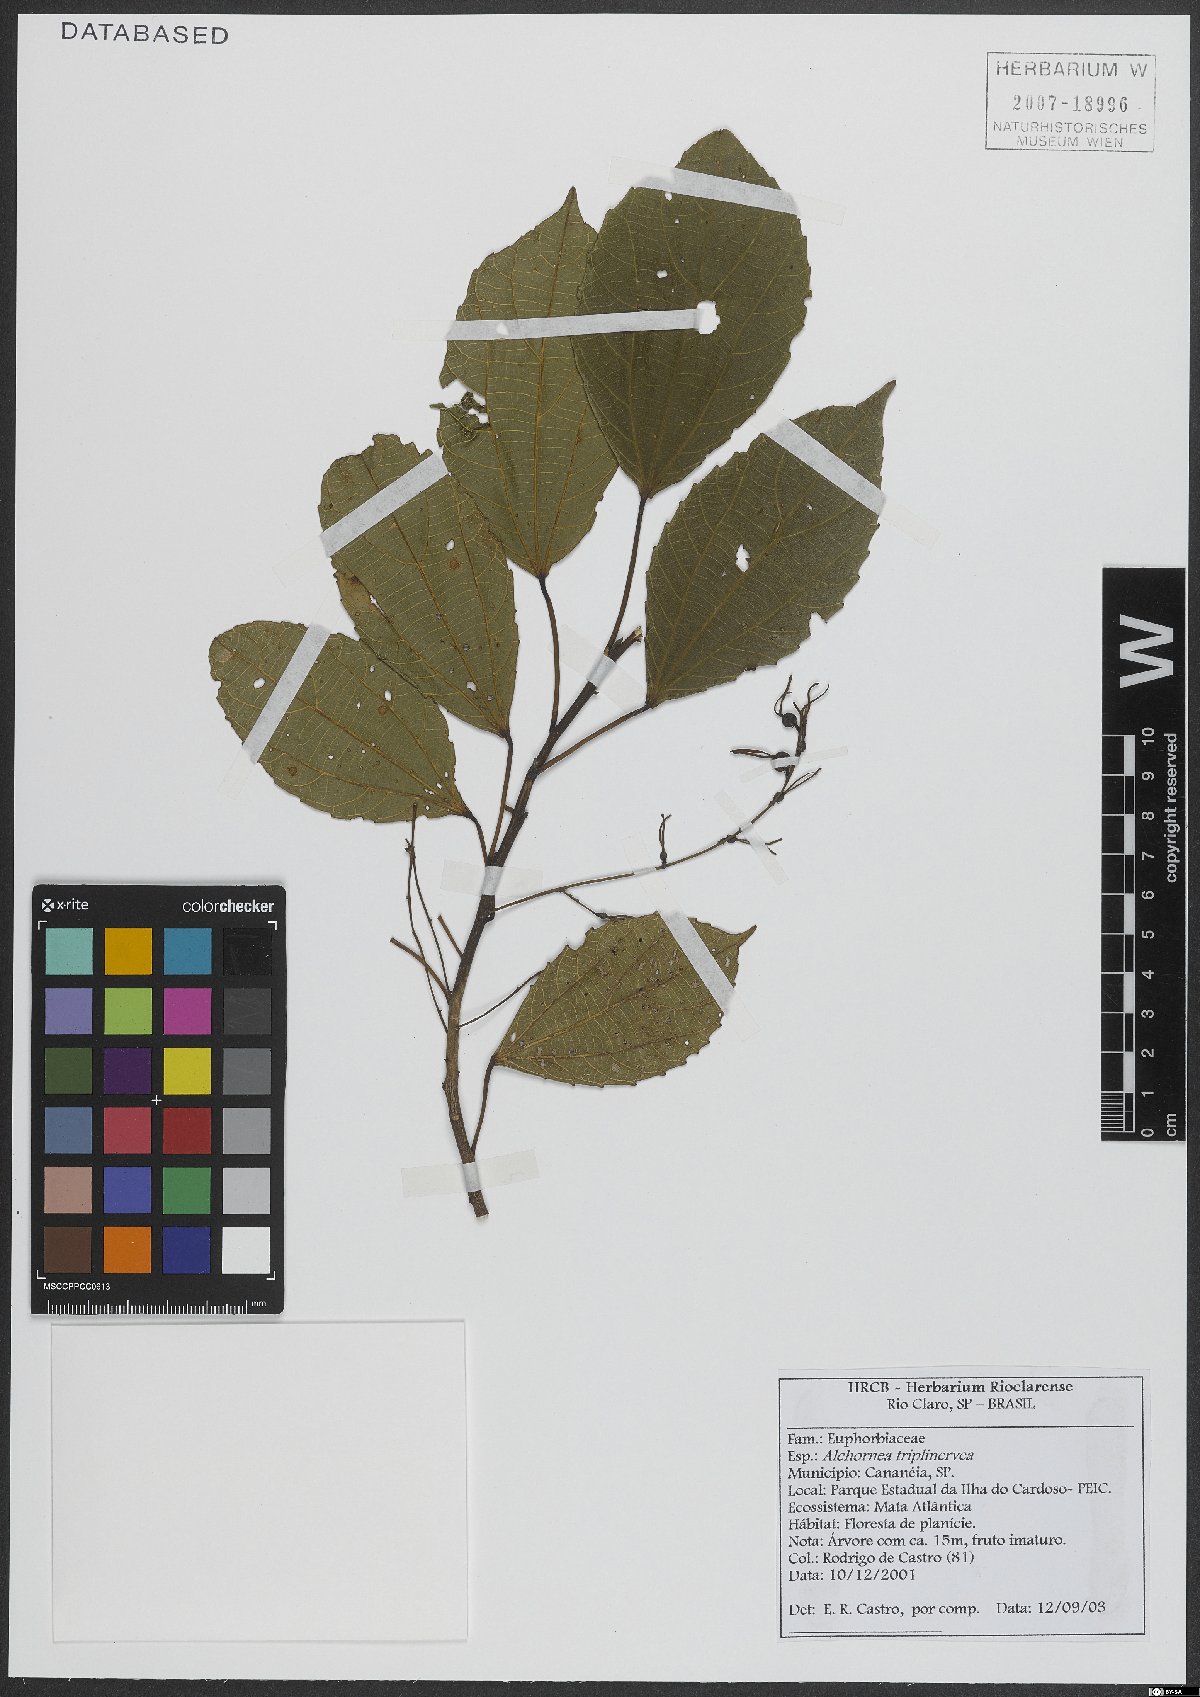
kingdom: Plantae
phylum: Tracheophyta
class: Magnoliopsida
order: Malpighiales
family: Euphorbiaceae
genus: Alchornea
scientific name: Alchornea triplinervia
